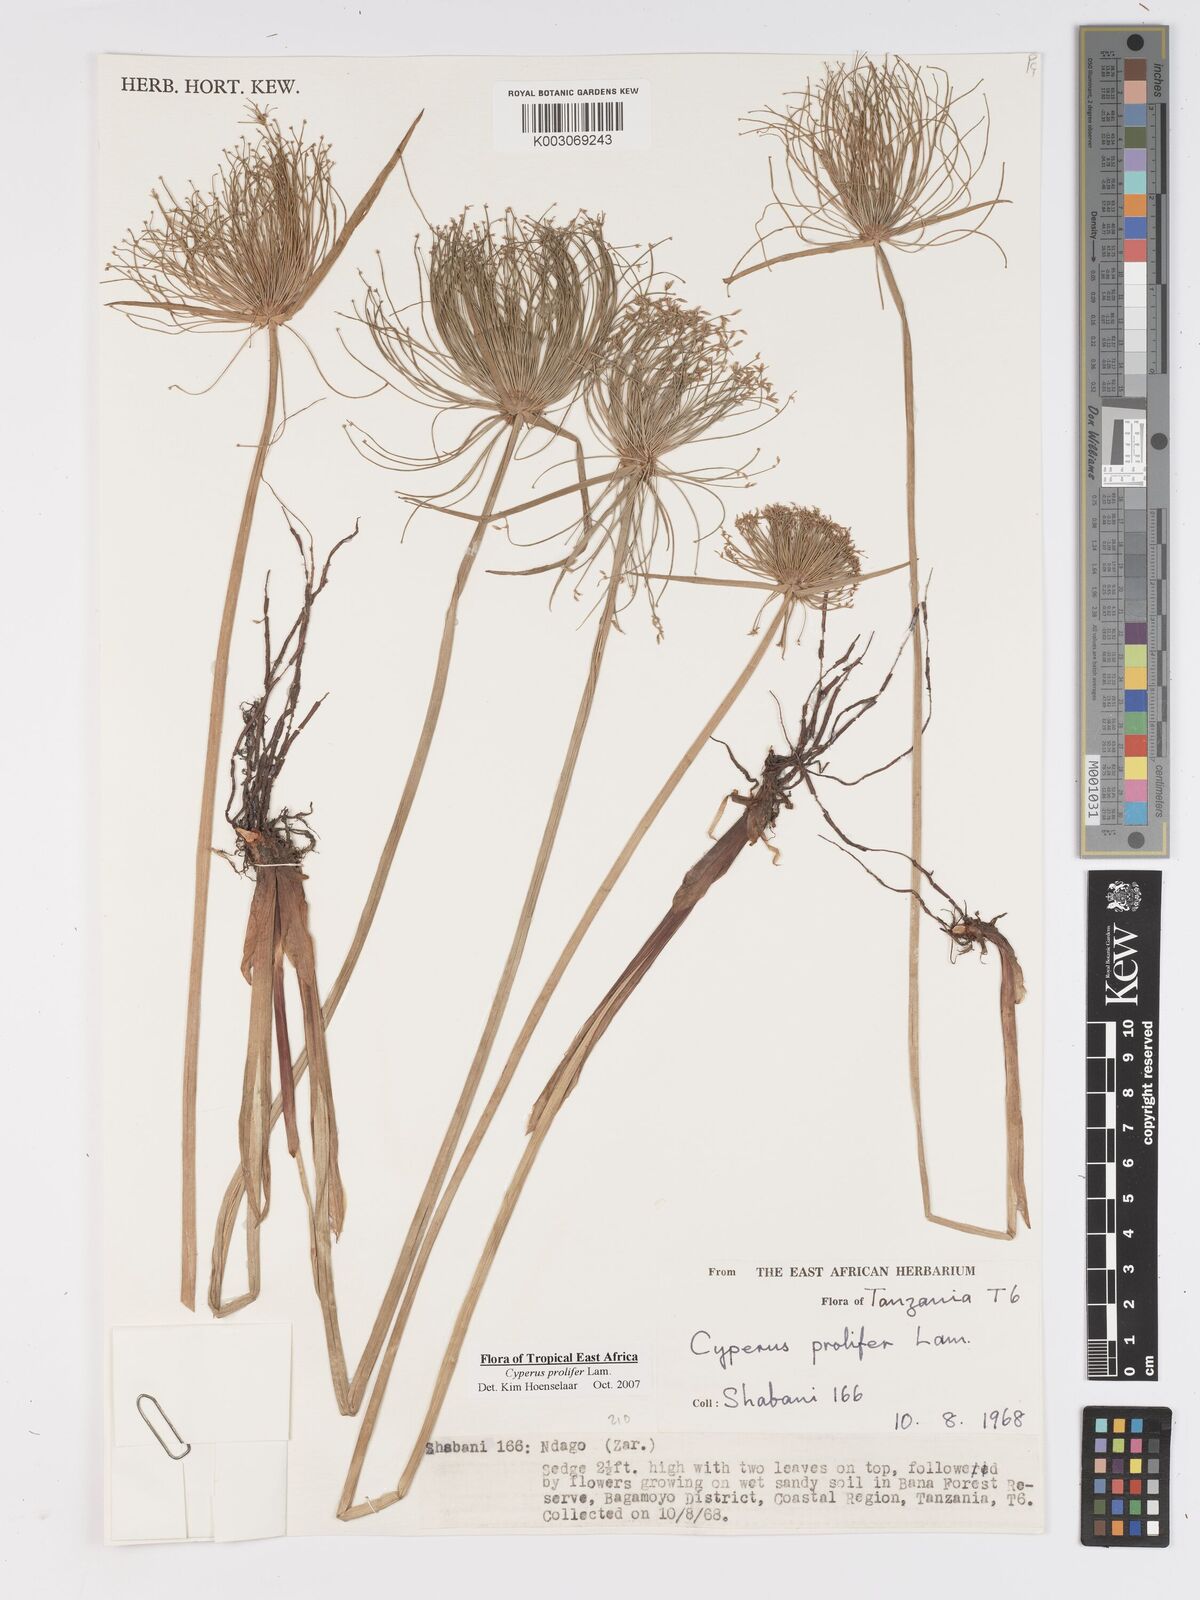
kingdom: Plantae
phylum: Tracheophyta
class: Liliopsida
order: Poales
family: Cyperaceae
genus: Cyperus
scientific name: Cyperus prolifer
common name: Miniature flatsedge
